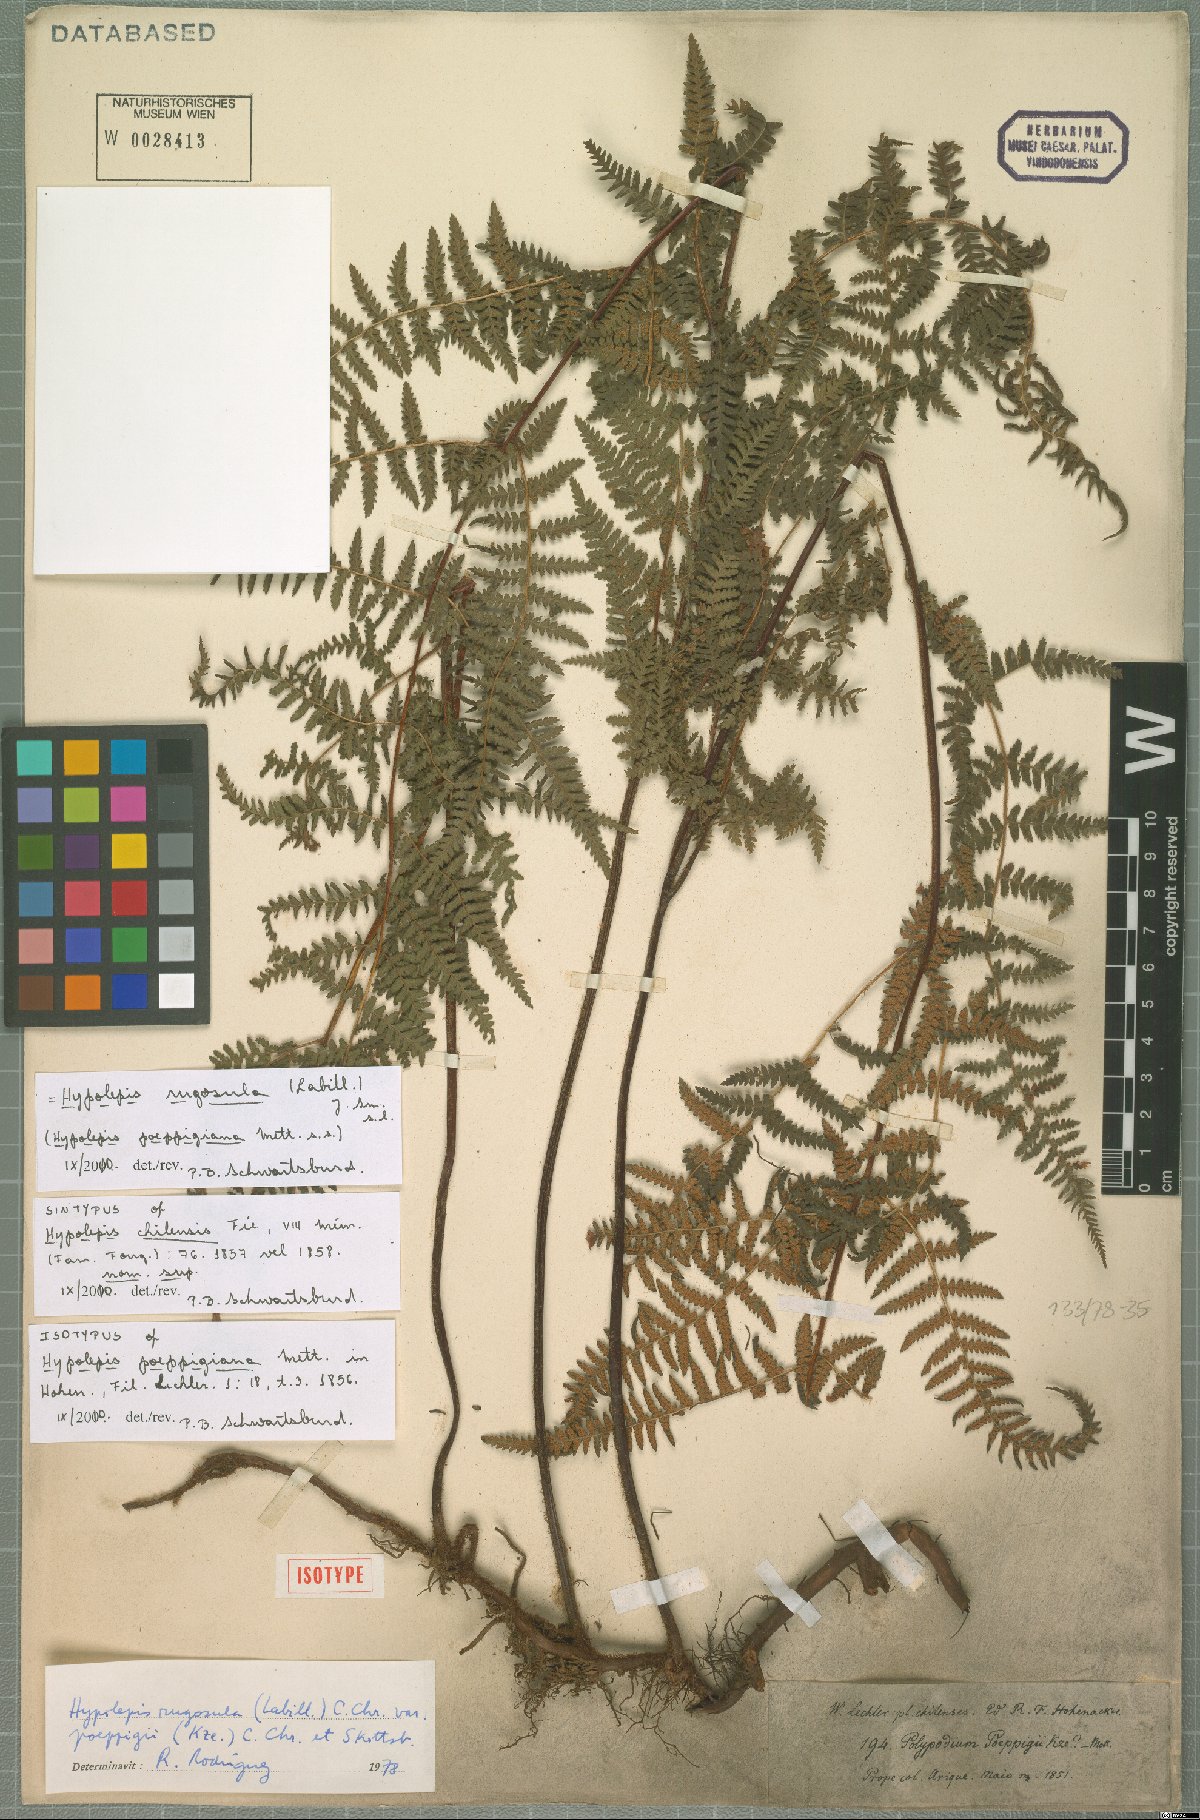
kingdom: Plantae
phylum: Tracheophyta
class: Polypodiopsida
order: Polypodiales
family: Dennstaedtiaceae
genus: Hypolepis
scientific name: Hypolepis poeppigii
